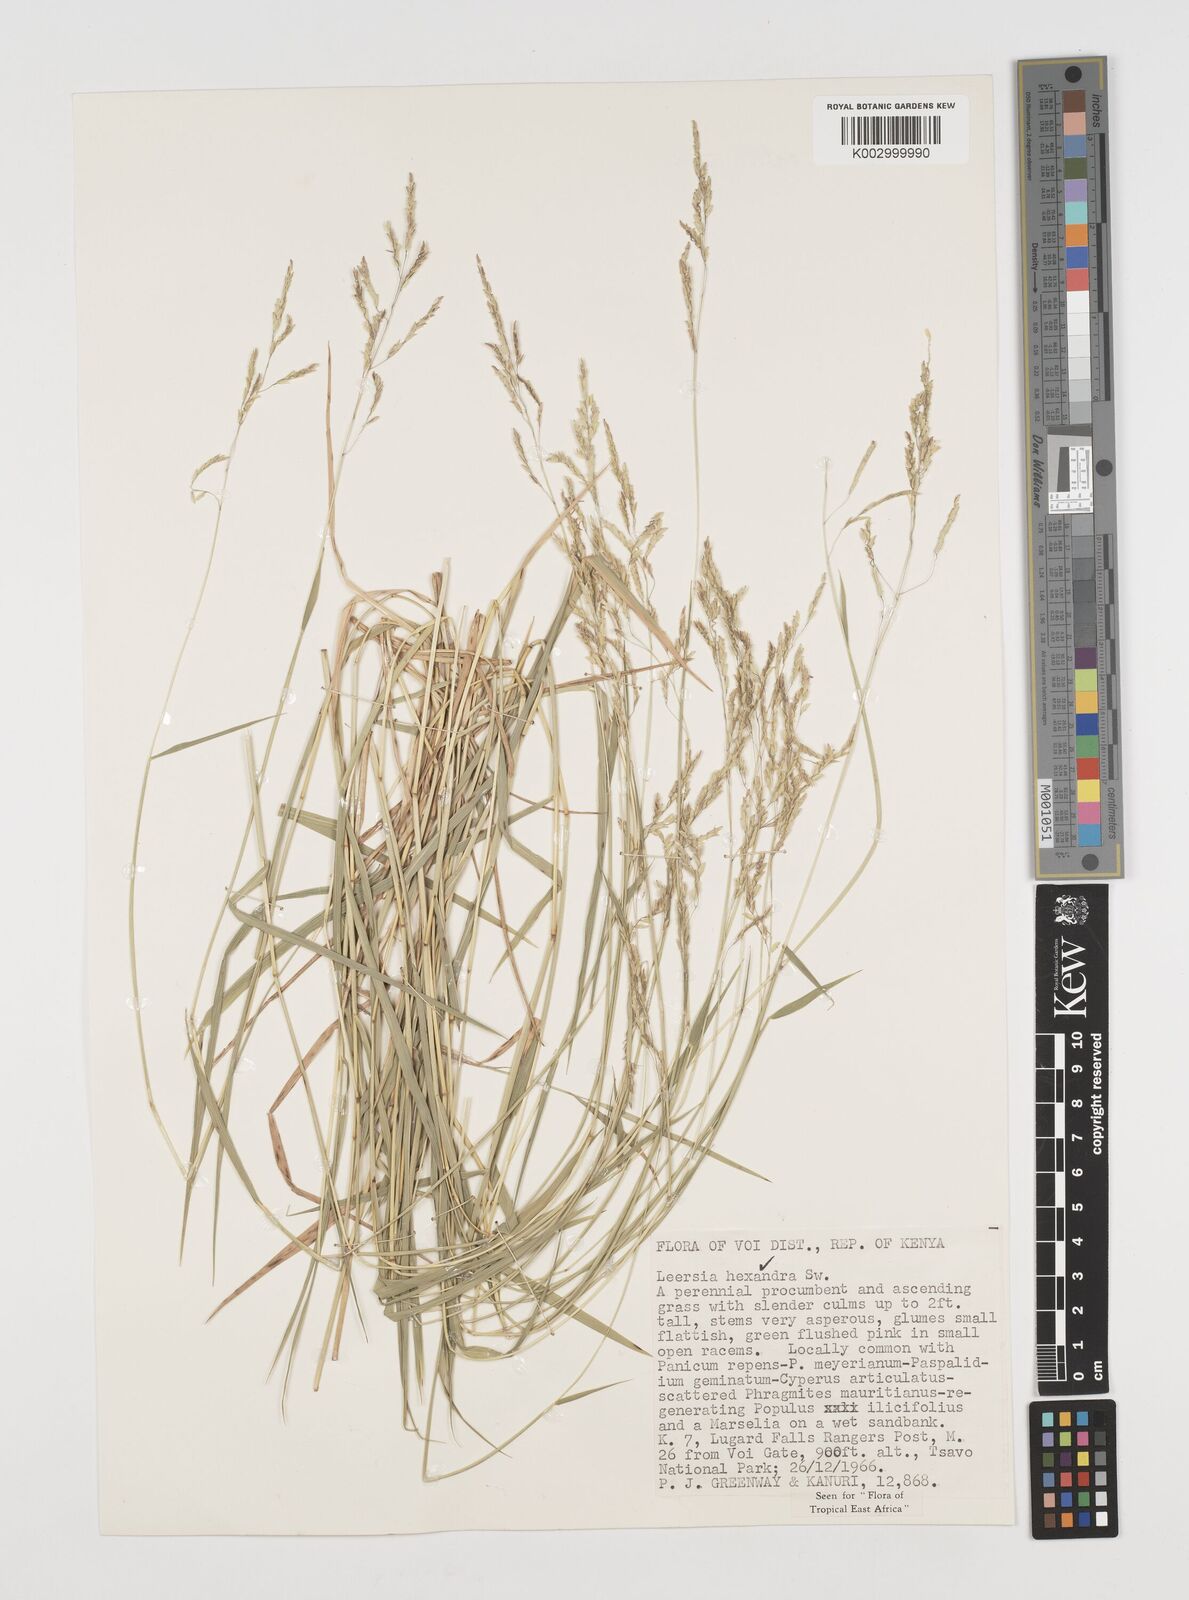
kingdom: Plantae
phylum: Tracheophyta
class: Liliopsida
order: Poales
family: Poaceae
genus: Leersia
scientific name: Leersia hexandra
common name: Southern cut grass
